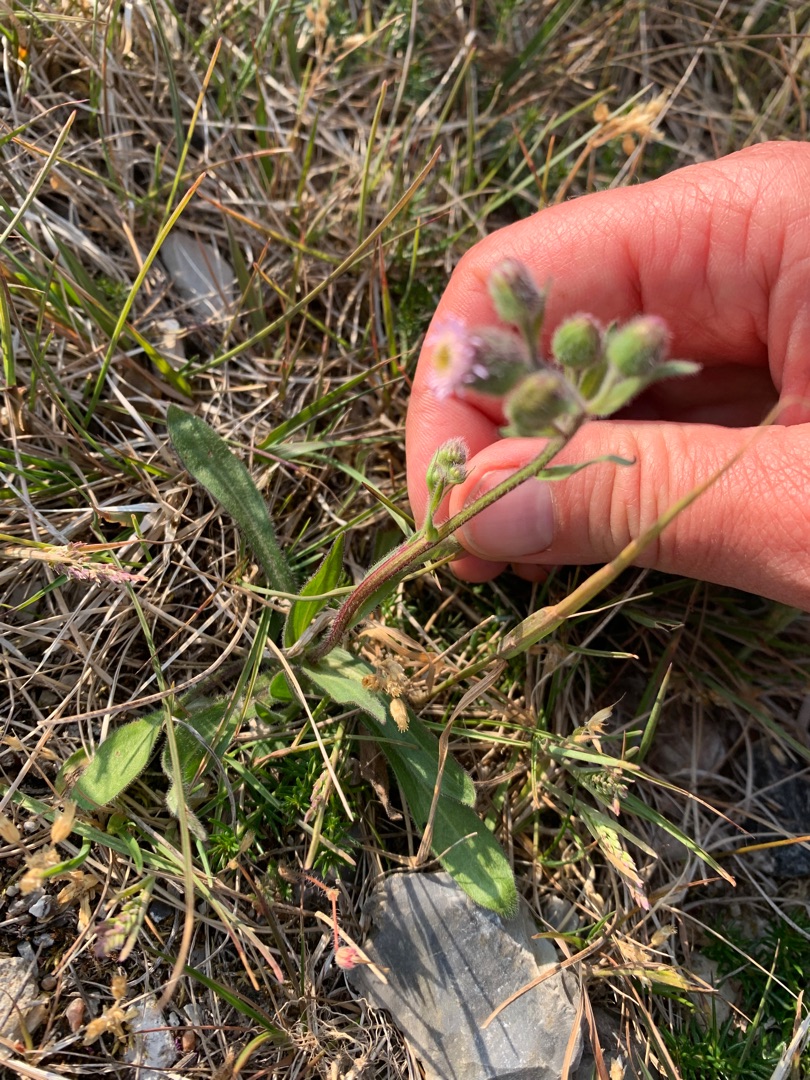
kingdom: Plantae
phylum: Tracheophyta
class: Magnoliopsida
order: Asterales
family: Asteraceae
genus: Erigeron
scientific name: Erigeron acris
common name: Bitter bakkestjerne
